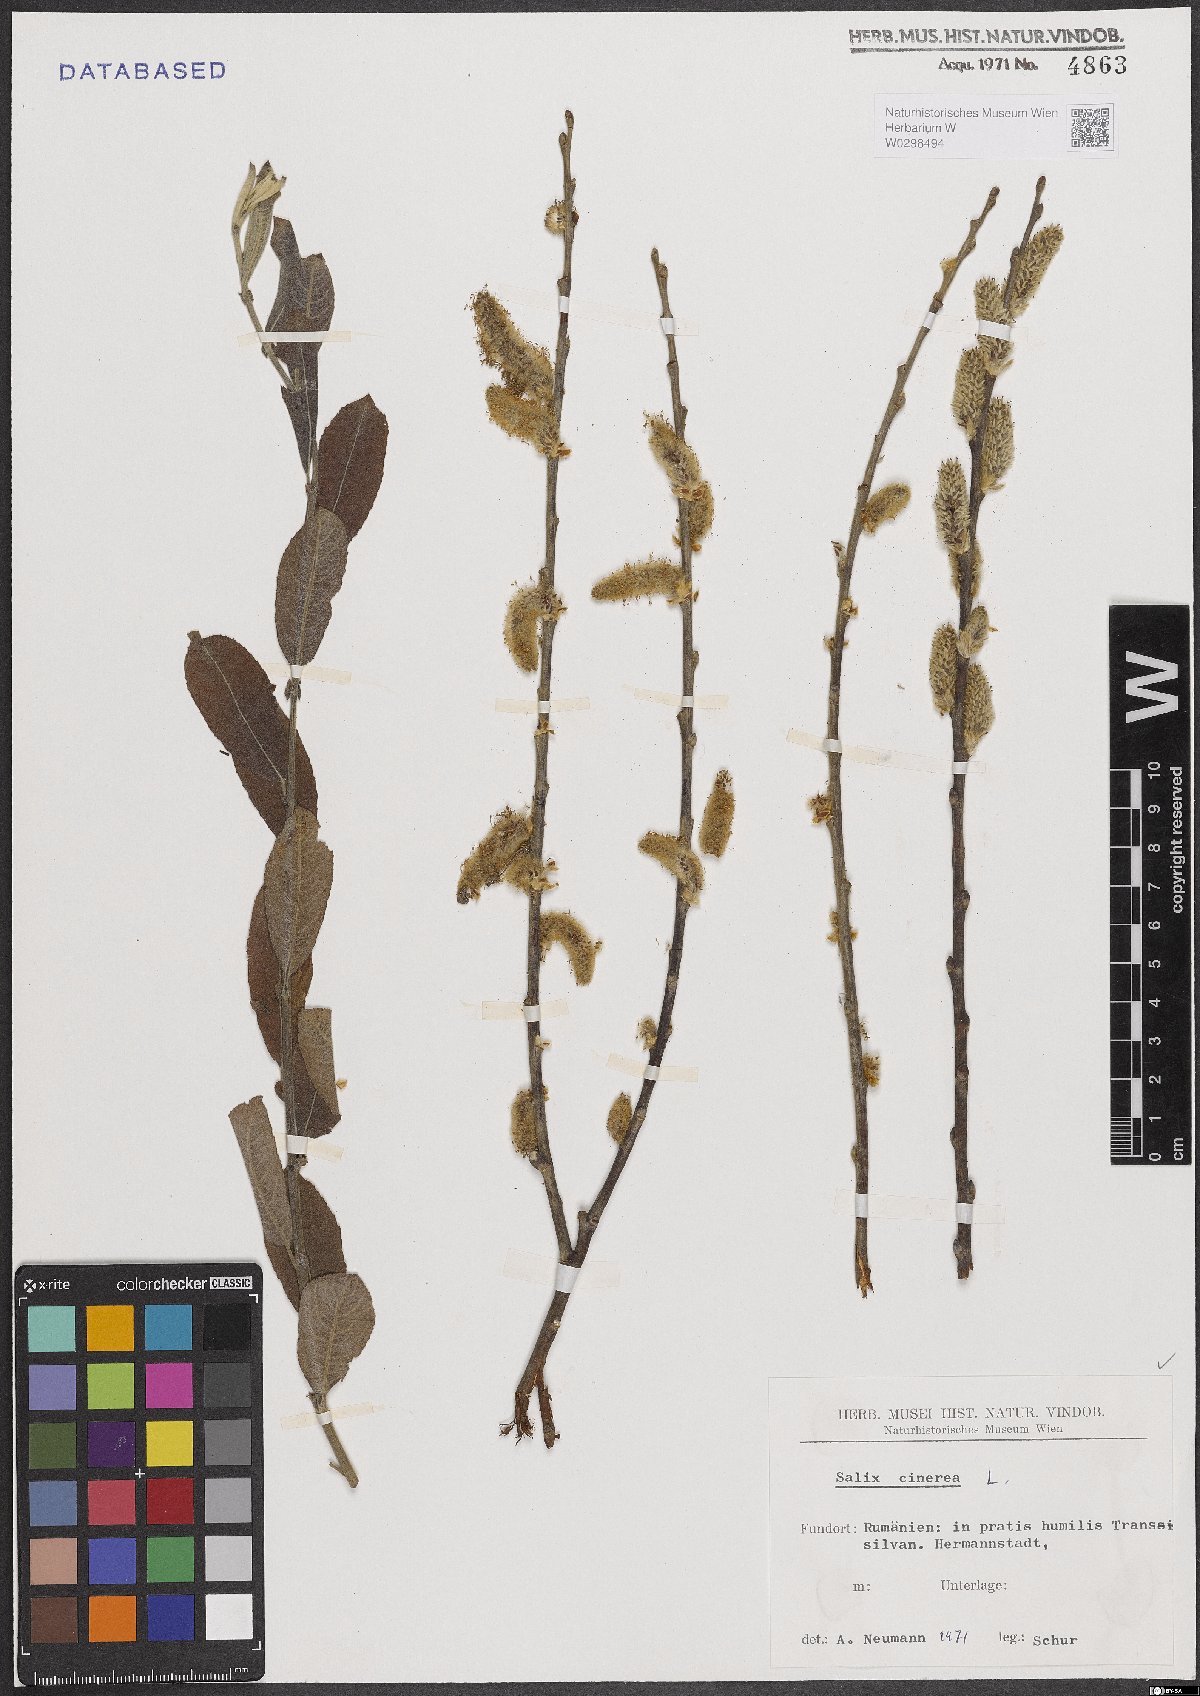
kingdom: Plantae
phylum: Tracheophyta
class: Magnoliopsida
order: Malpighiales
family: Salicaceae
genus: Salix
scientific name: Salix cinerea
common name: Common sallow
